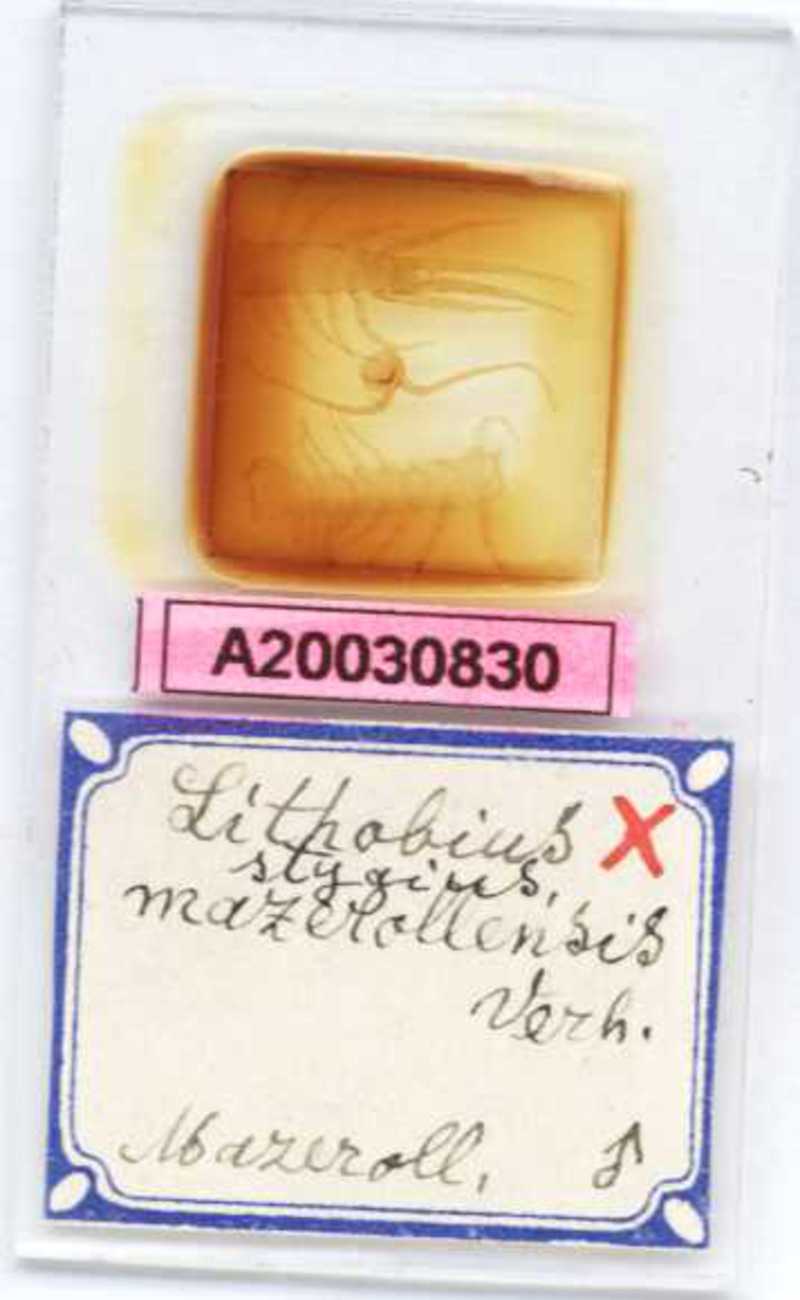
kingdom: Animalia
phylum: Arthropoda
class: Chilopoda
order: Lithobiomorpha
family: Lithobiidae
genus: Lithobius
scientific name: Lithobius stygius
